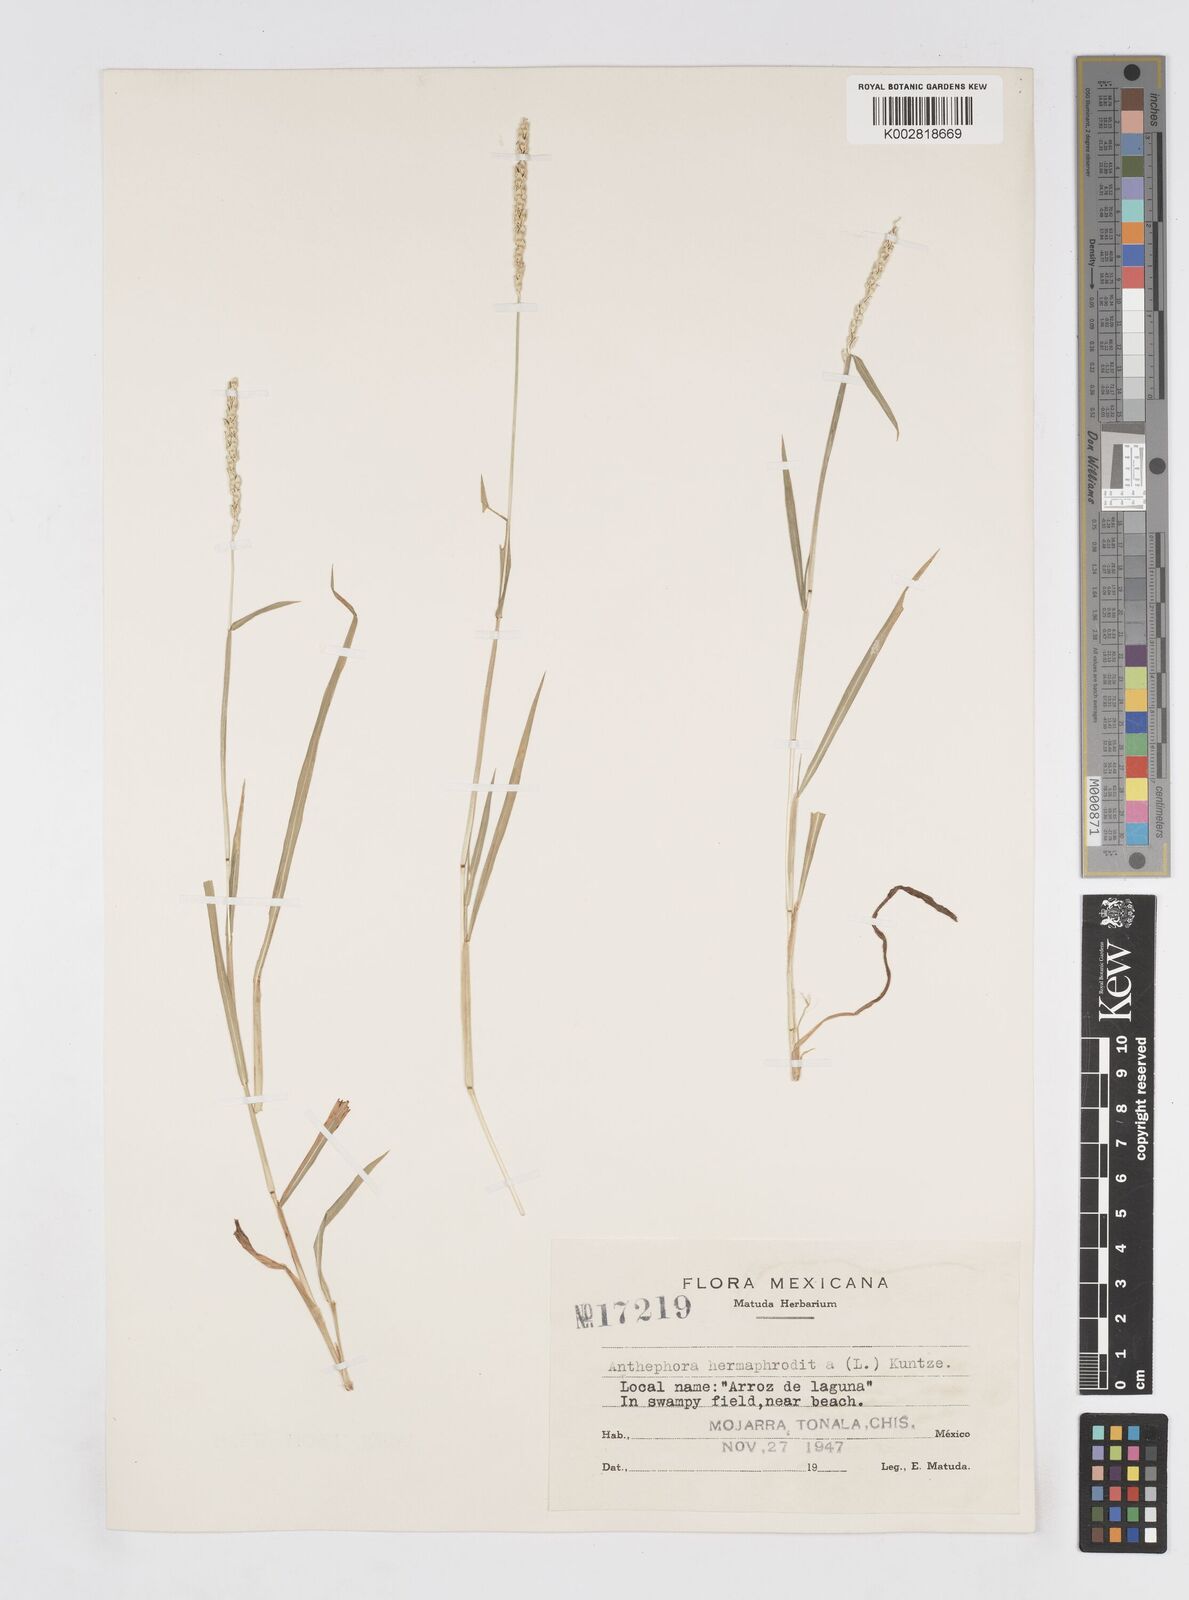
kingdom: Plantae
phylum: Tracheophyta
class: Liliopsida
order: Poales
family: Poaceae
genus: Anthephora
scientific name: Anthephora hermaphrodita
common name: Oldfield grass
